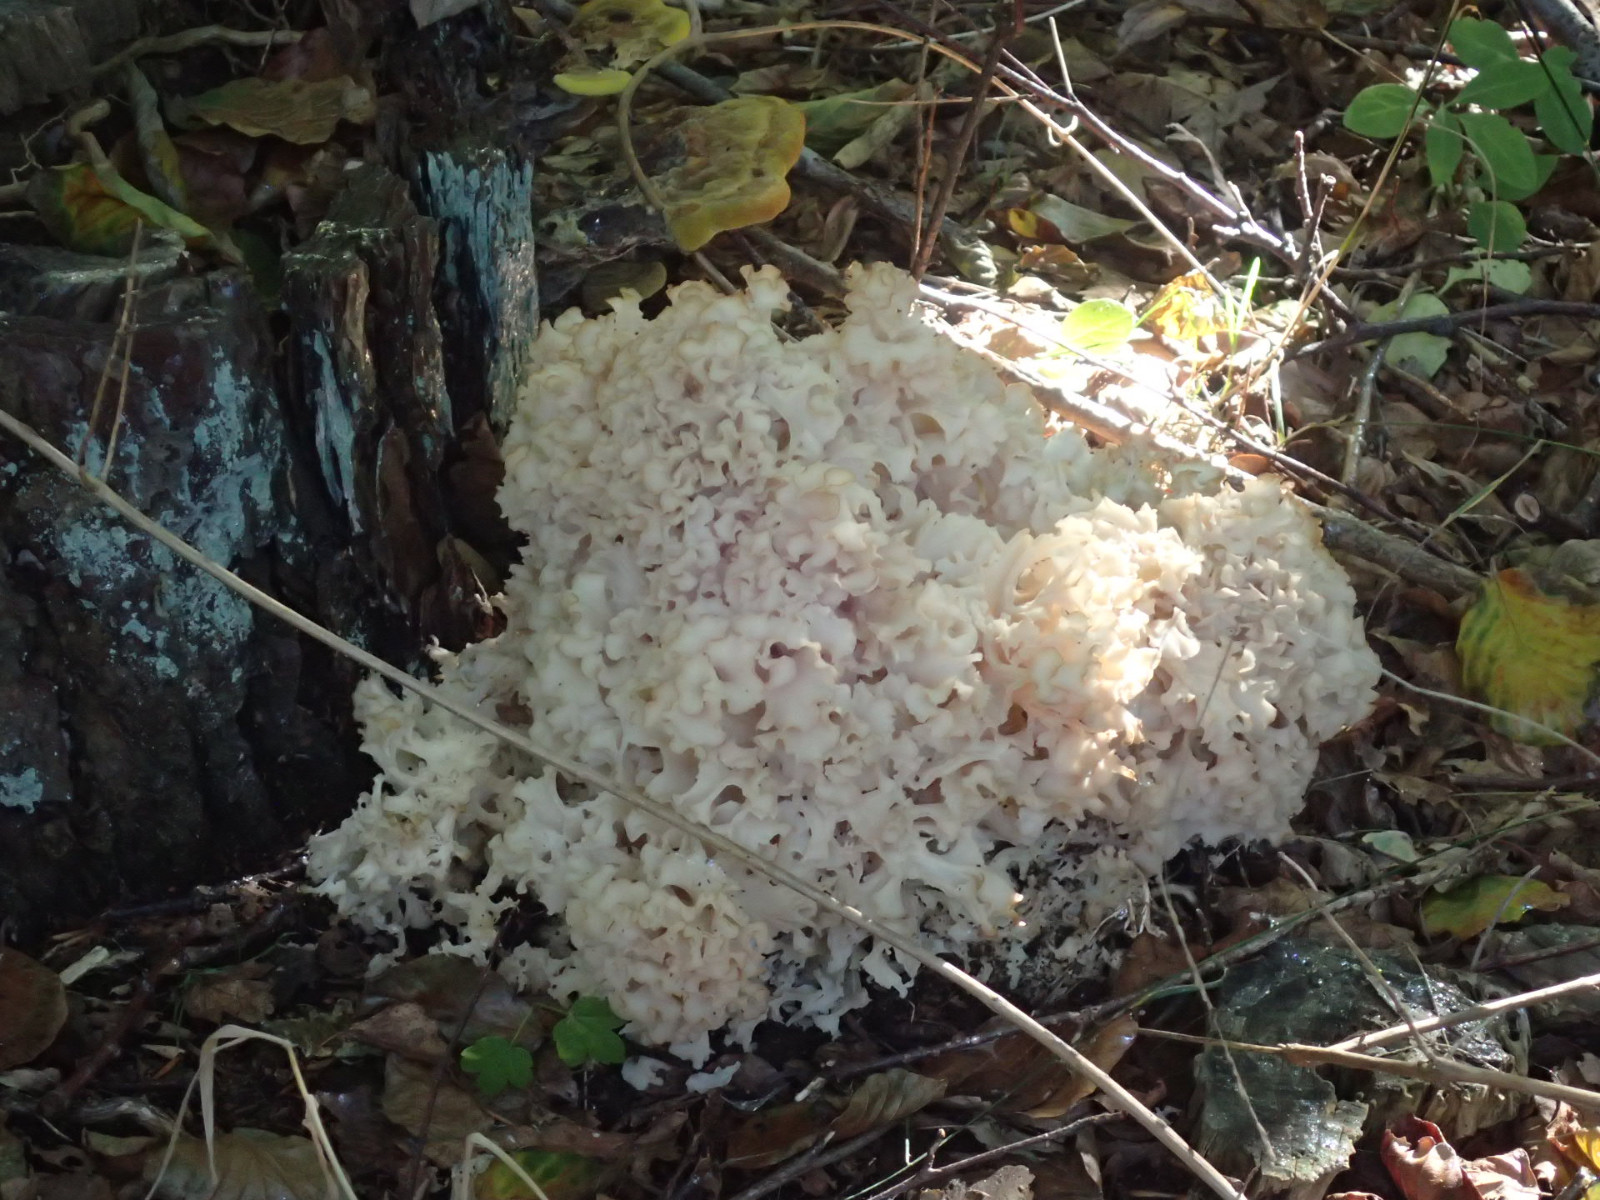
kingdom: Fungi
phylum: Basidiomycota
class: Agaricomycetes
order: Polyporales
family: Sparassidaceae
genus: Sparassis
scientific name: Sparassis crispa
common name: kruset blomkålssvamp
